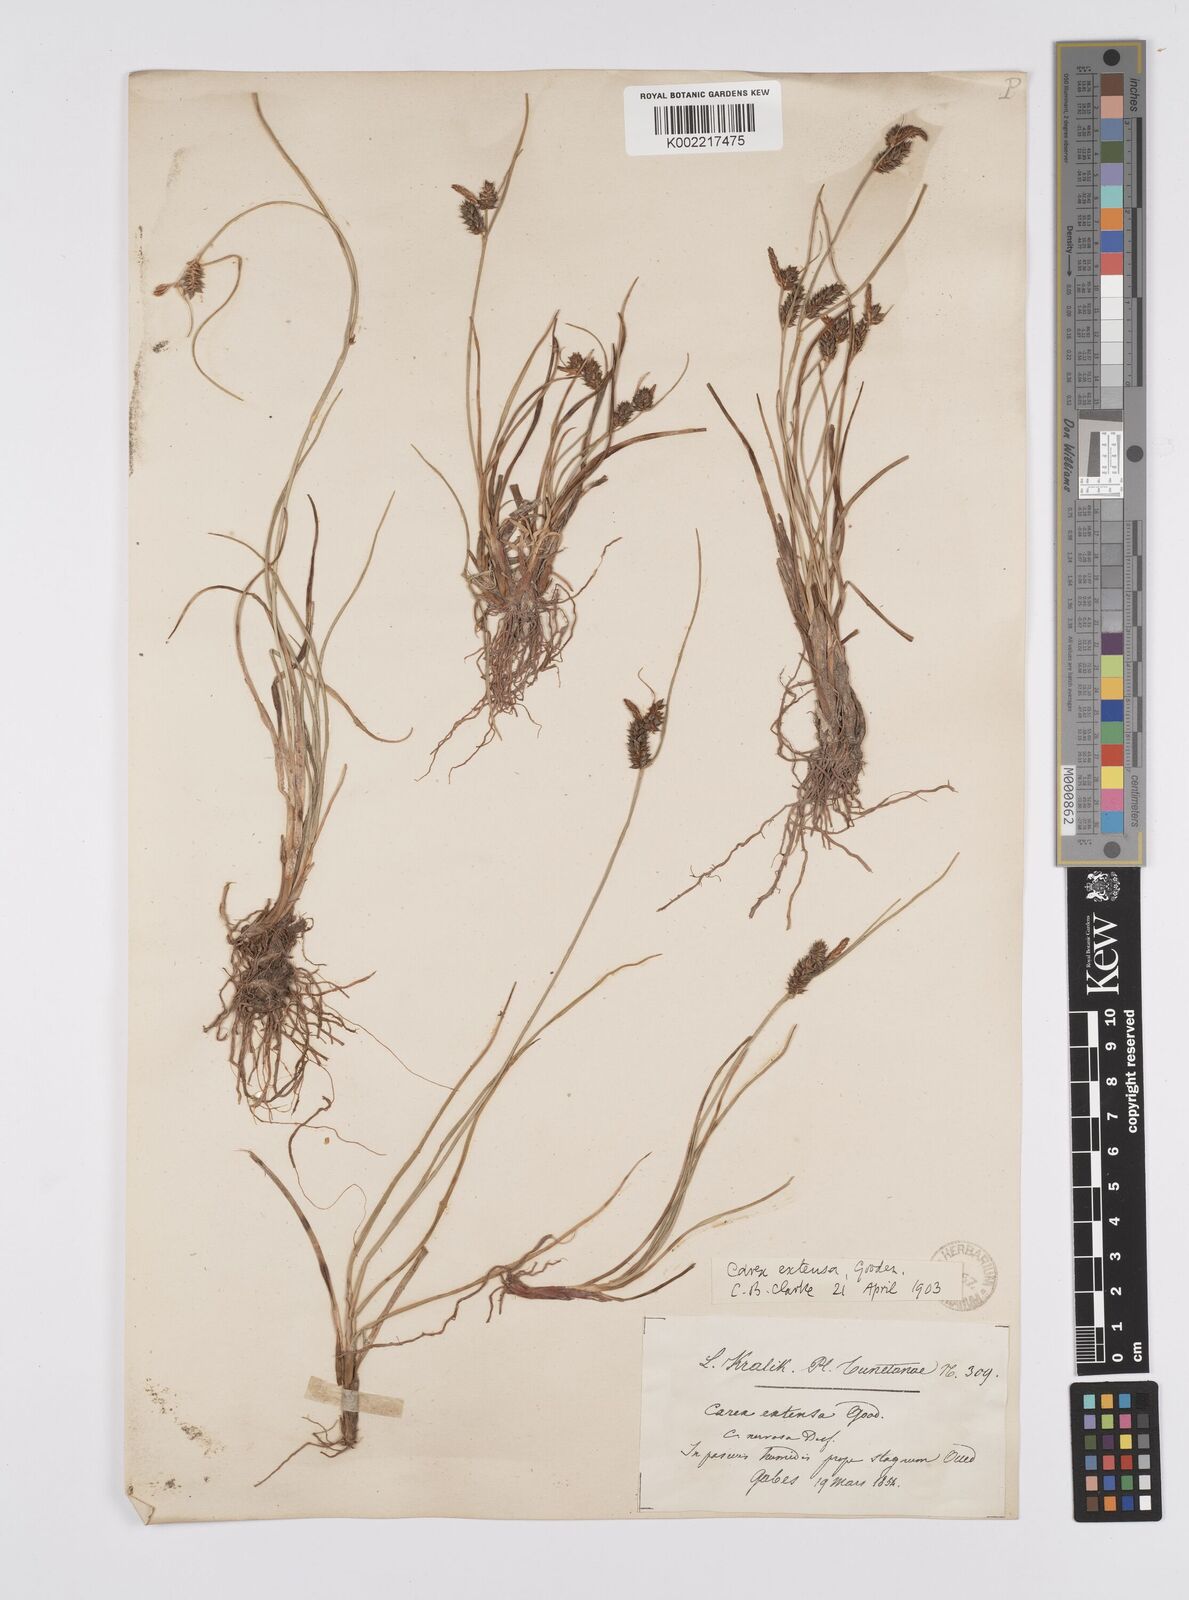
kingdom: Plantae
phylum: Tracheophyta
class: Liliopsida
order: Poales
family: Cyperaceae
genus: Carex
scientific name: Carex extensa
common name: Long-bracted sedge
